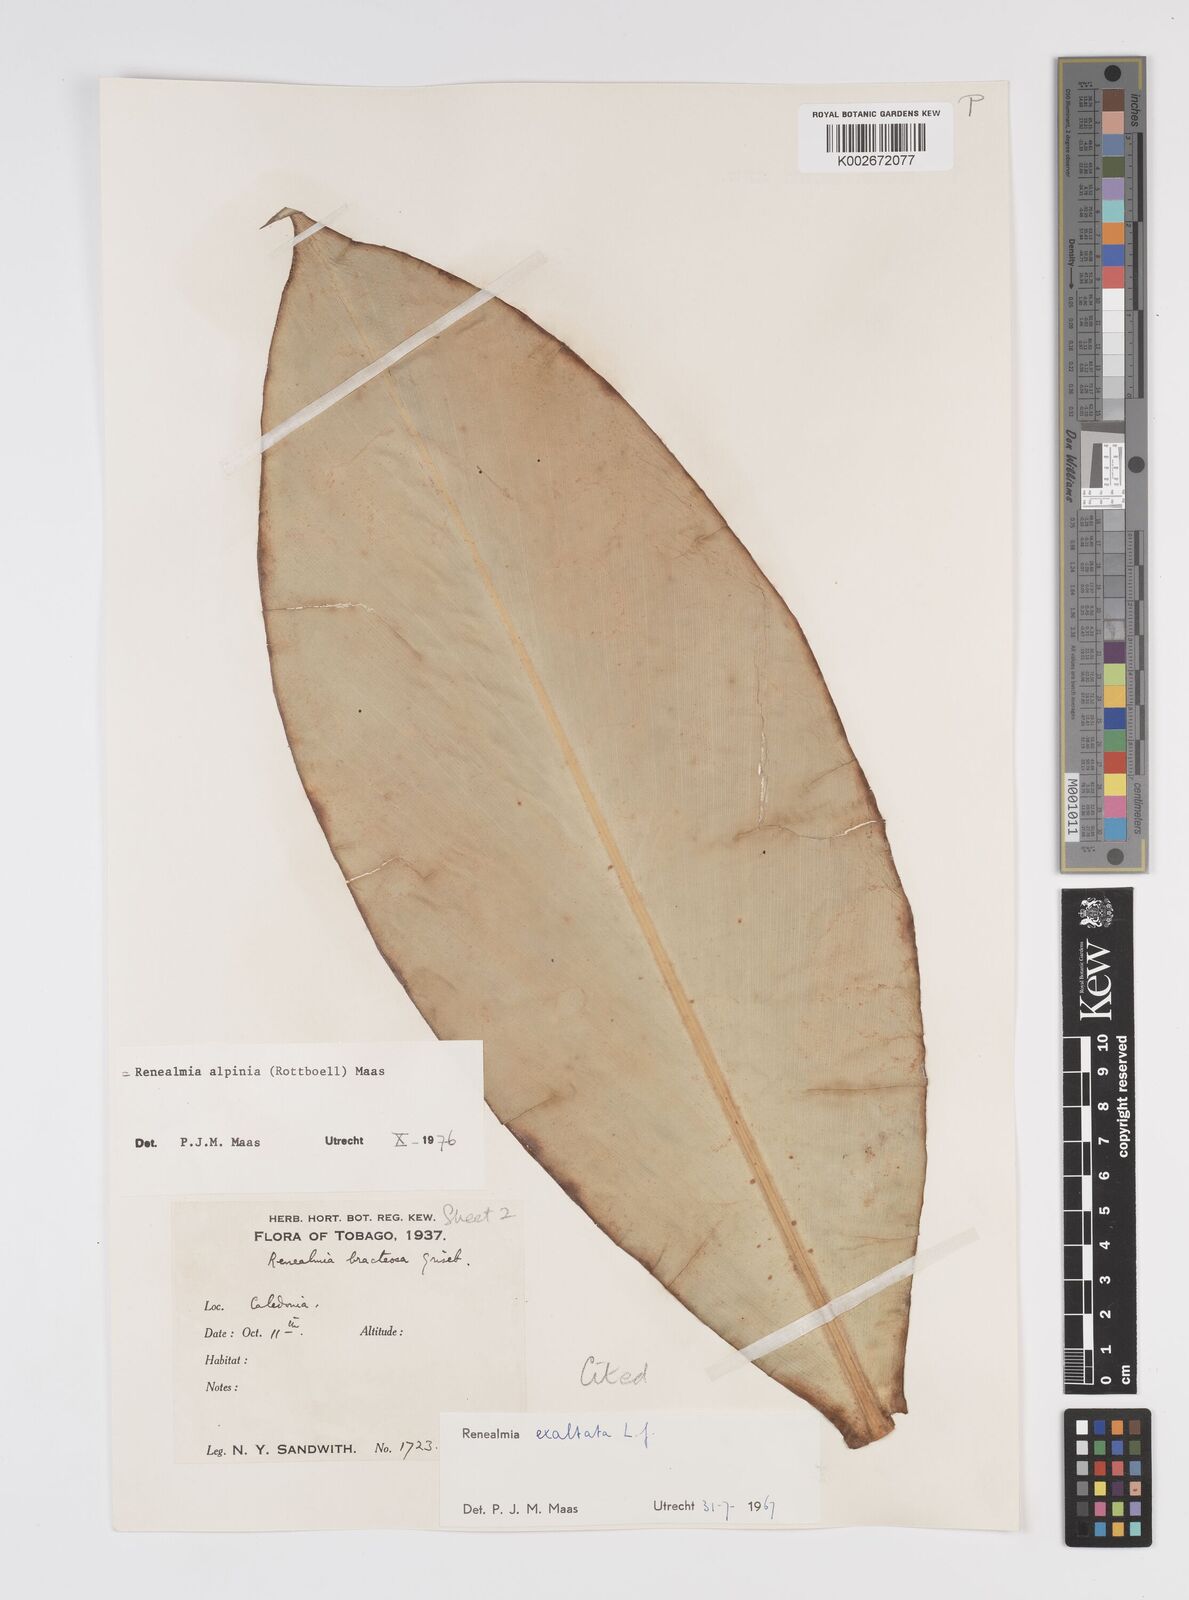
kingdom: Plantae
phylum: Tracheophyta
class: Liliopsida
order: Zingiberales
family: Zingiberaceae
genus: Renealmia
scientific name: Renealmia alpinia
